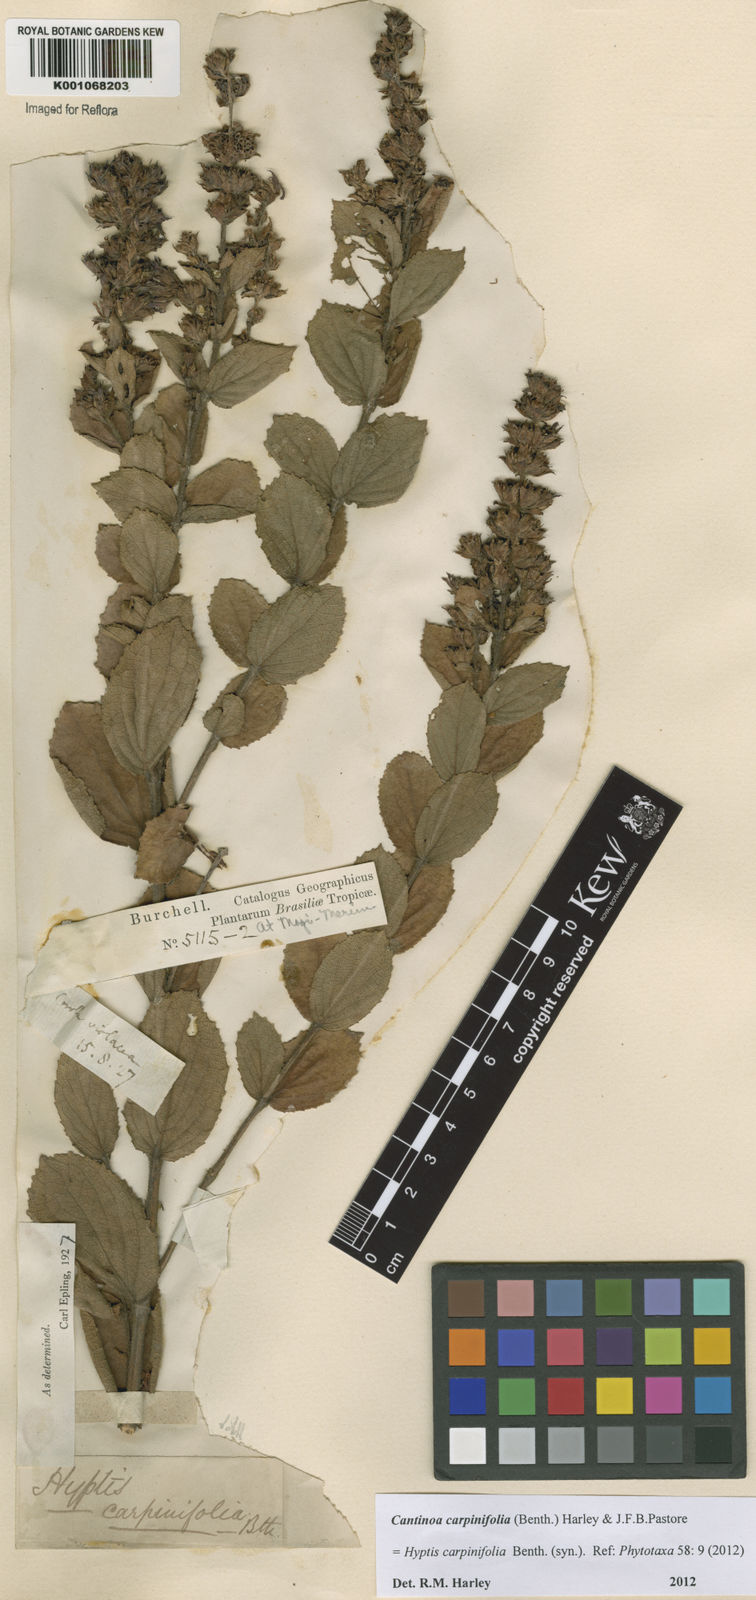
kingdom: Plantae
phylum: Tracheophyta
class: Magnoliopsida
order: Lamiales
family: Lamiaceae
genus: Cantinoa
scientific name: Cantinoa carpinifolia
